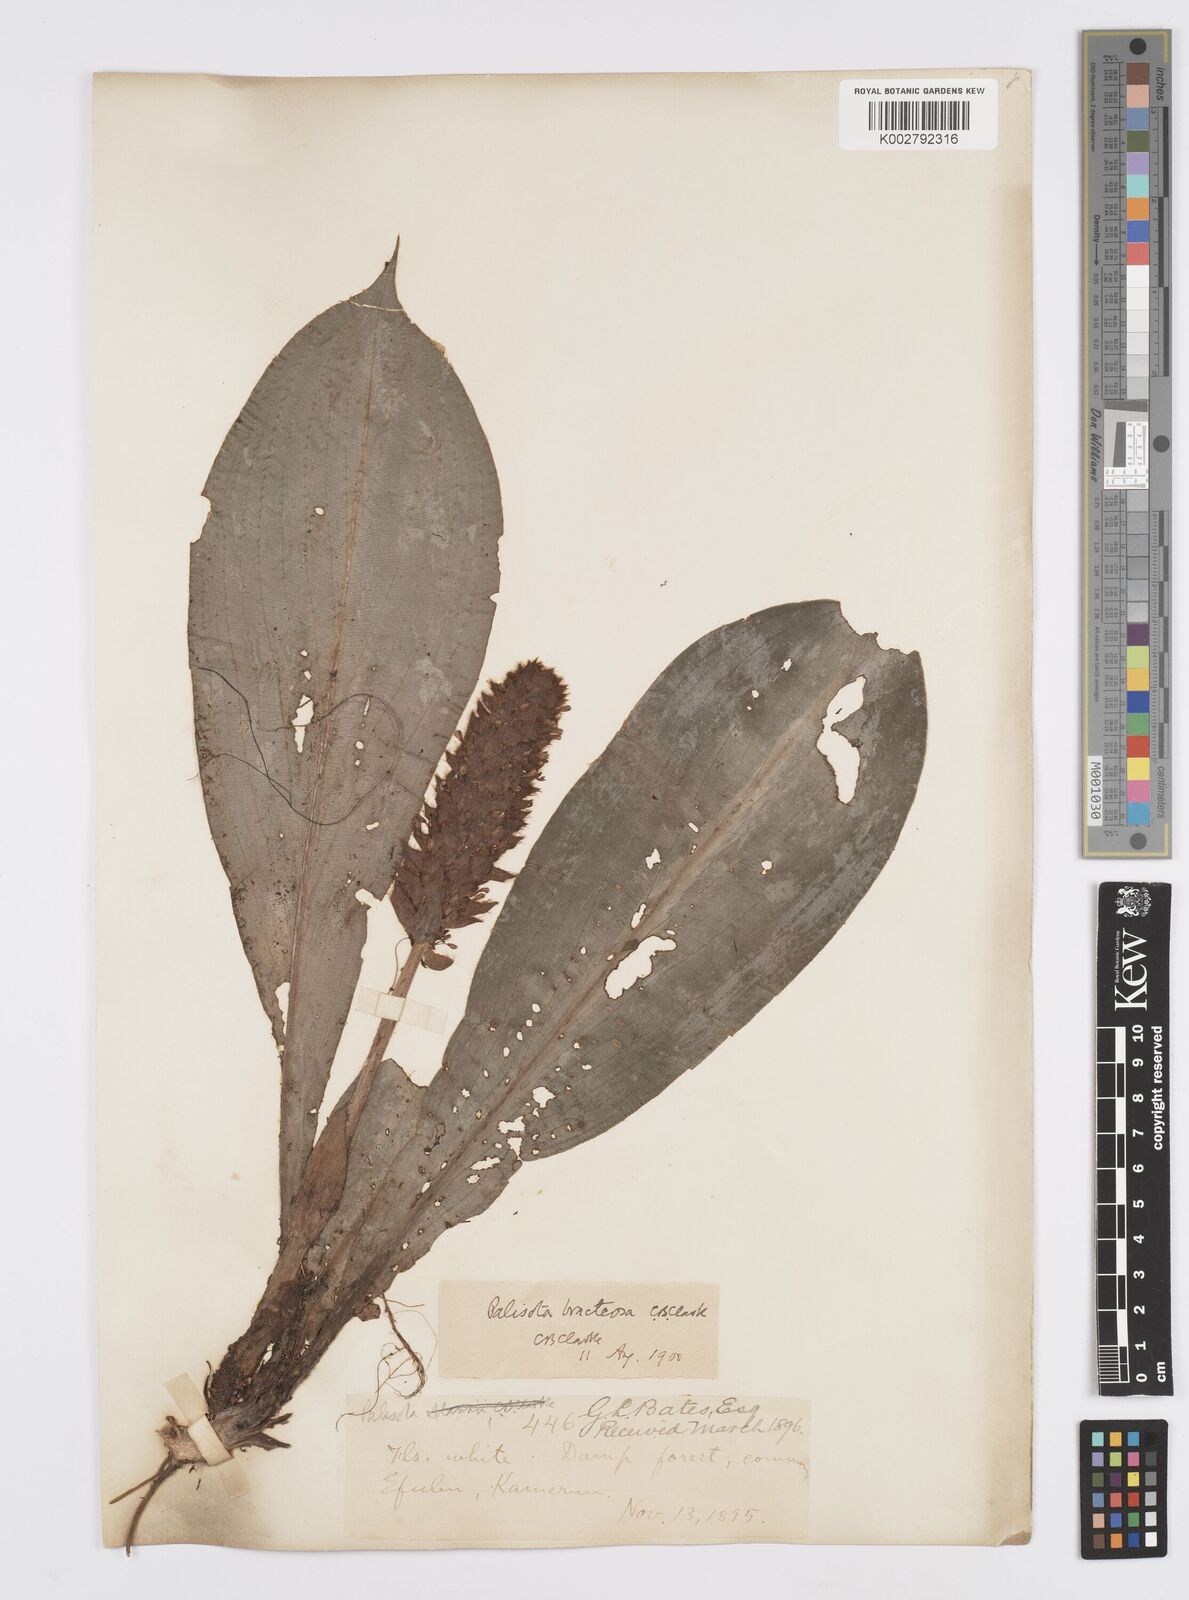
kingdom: Plantae
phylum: Tracheophyta
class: Liliopsida
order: Commelinales
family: Commelinaceae
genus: Palisota
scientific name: Palisota bracteosa
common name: Palisota
